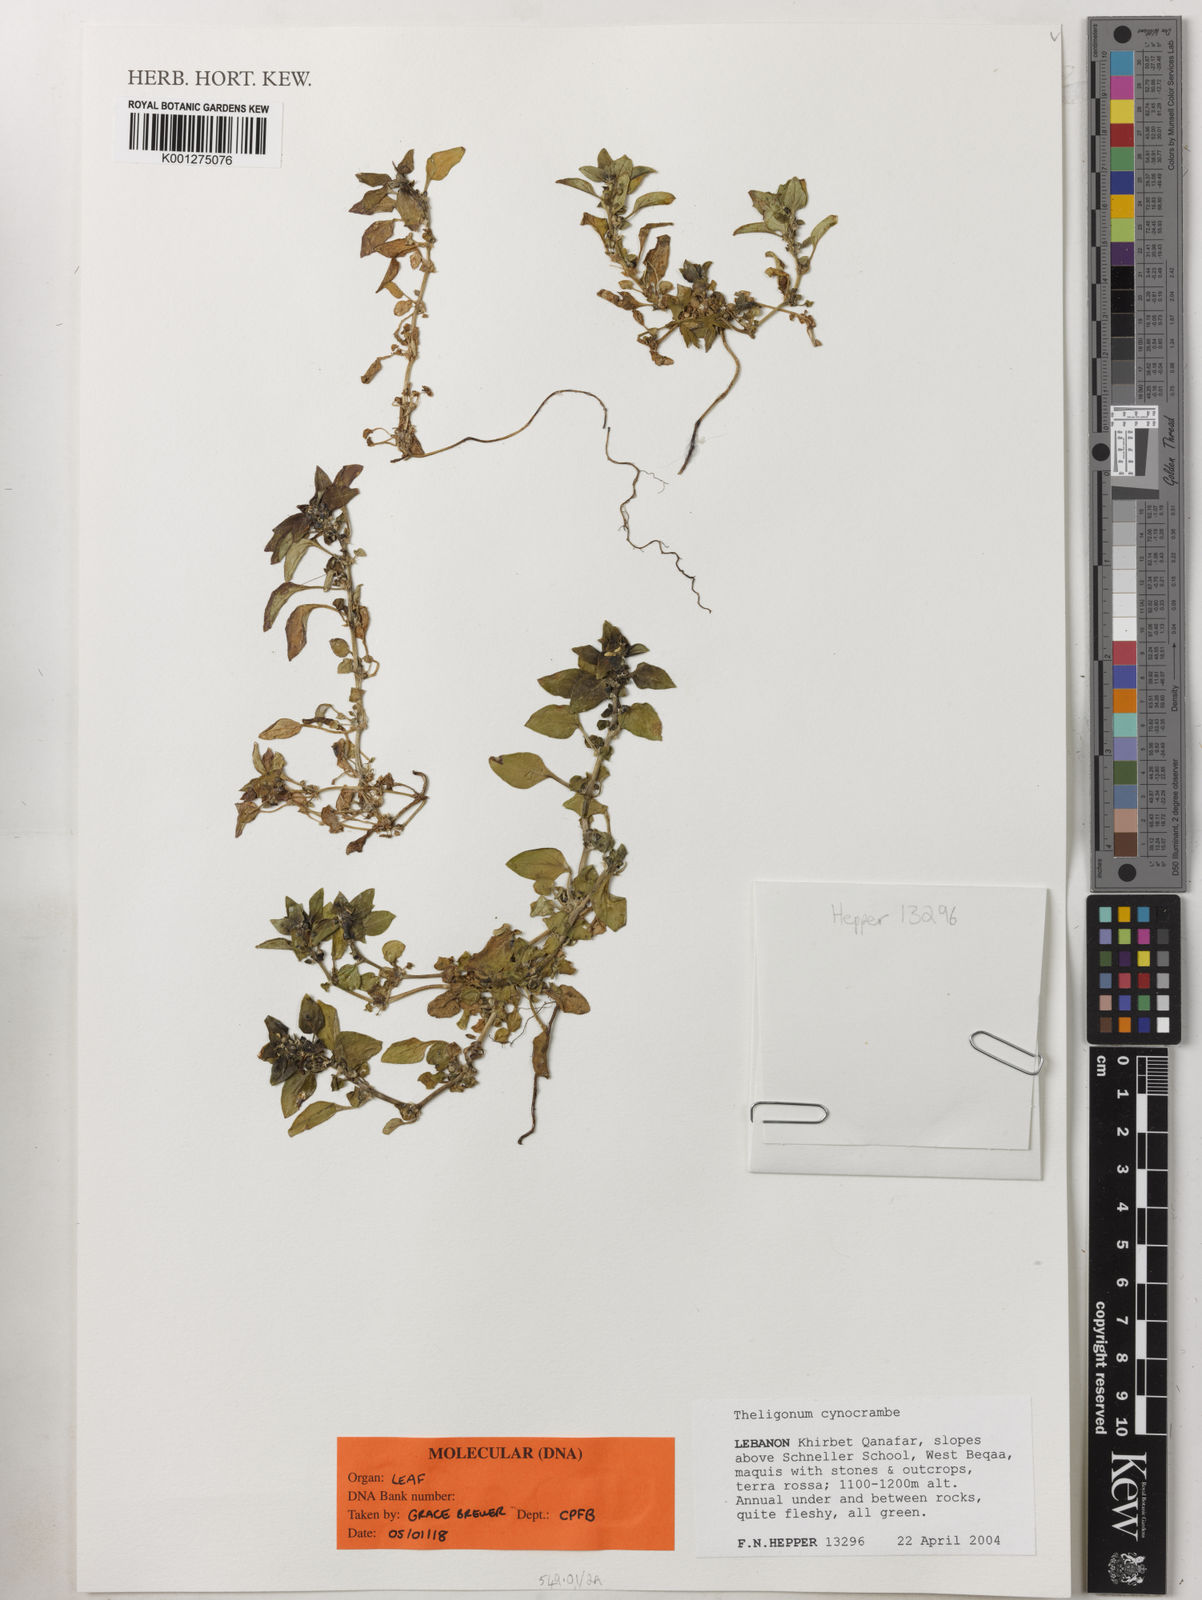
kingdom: Plantae
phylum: Tracheophyta
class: Magnoliopsida
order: Gentianales
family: Rubiaceae
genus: Theligonum
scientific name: Theligonum cynocrambe
